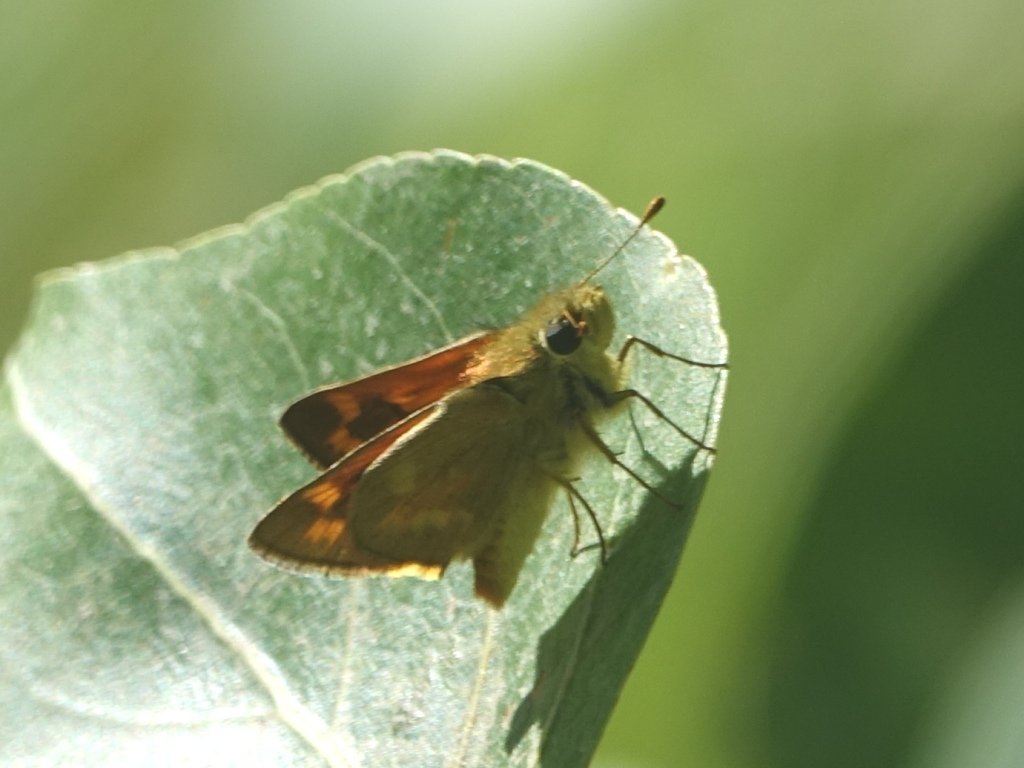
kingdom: Animalia
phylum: Arthropoda
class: Insecta
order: Lepidoptera
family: Hesperiidae
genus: Polites
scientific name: Polites mystic
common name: Sonoran Skipper
